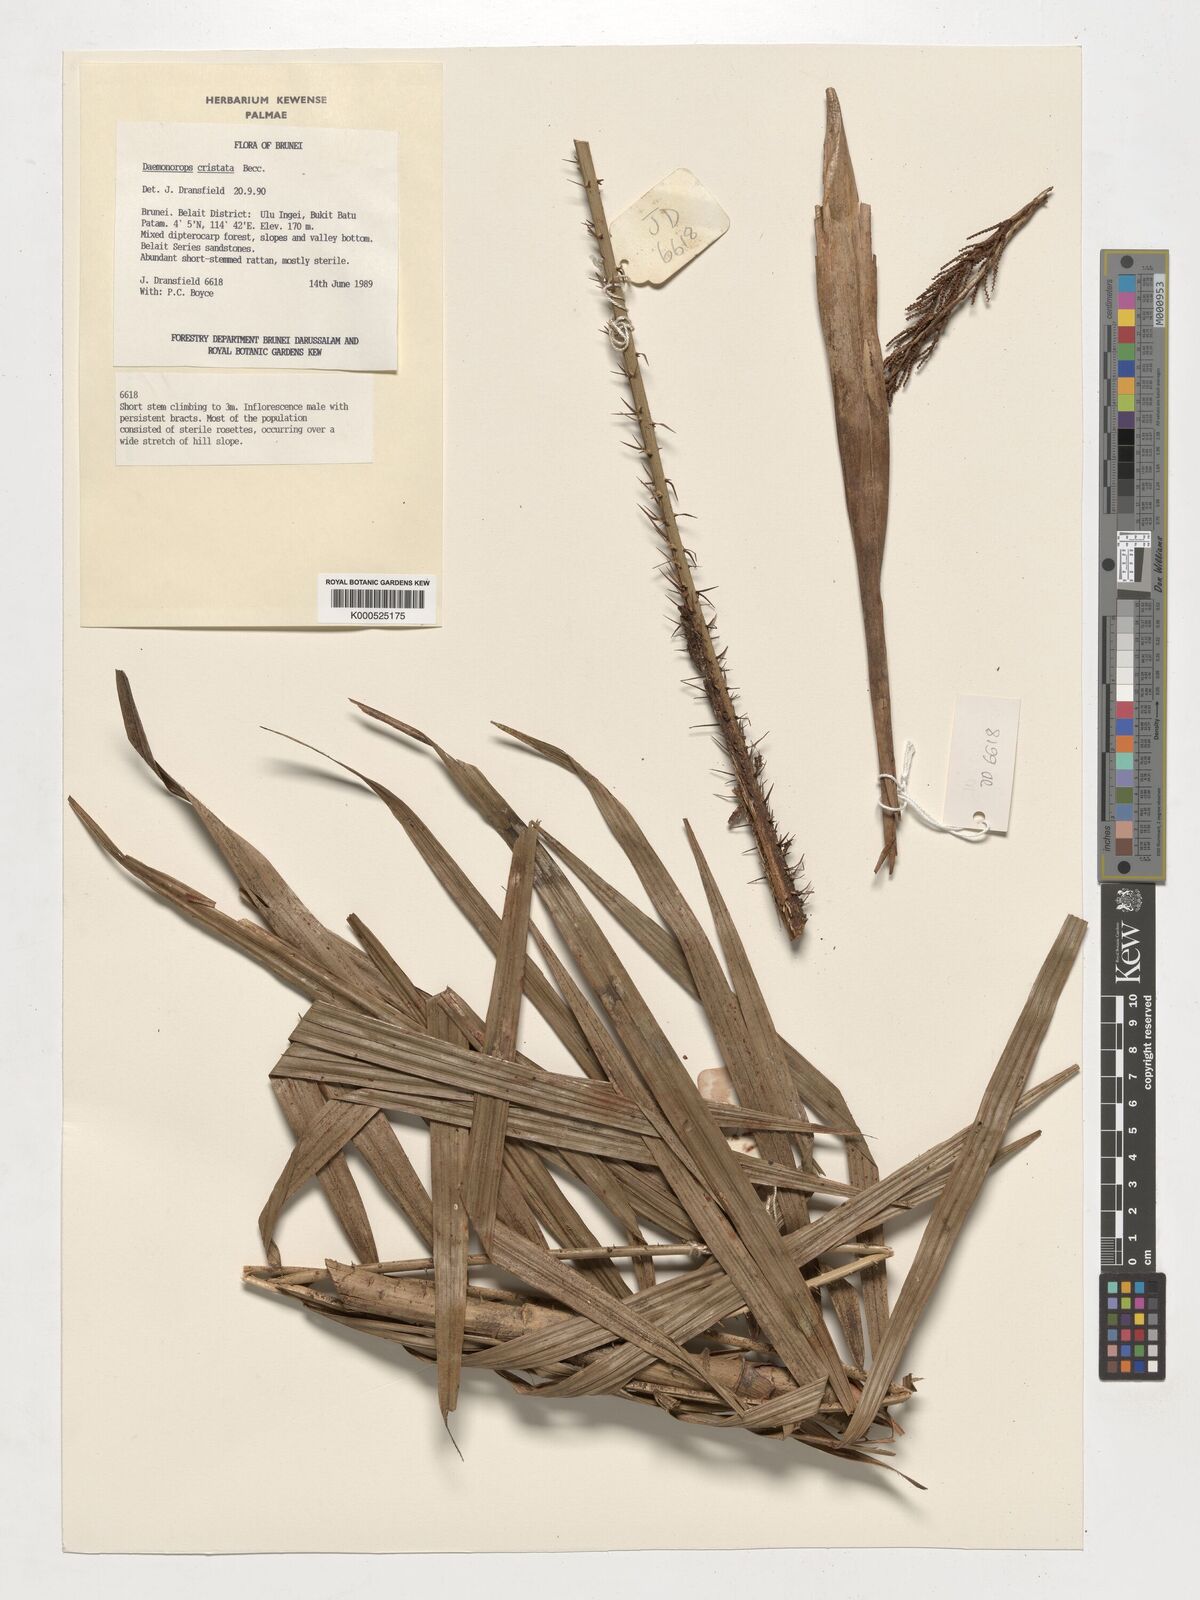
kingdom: Plantae
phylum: Tracheophyta
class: Liliopsida
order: Arecales
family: Arecaceae
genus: Calamus
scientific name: Calamus cristatus
